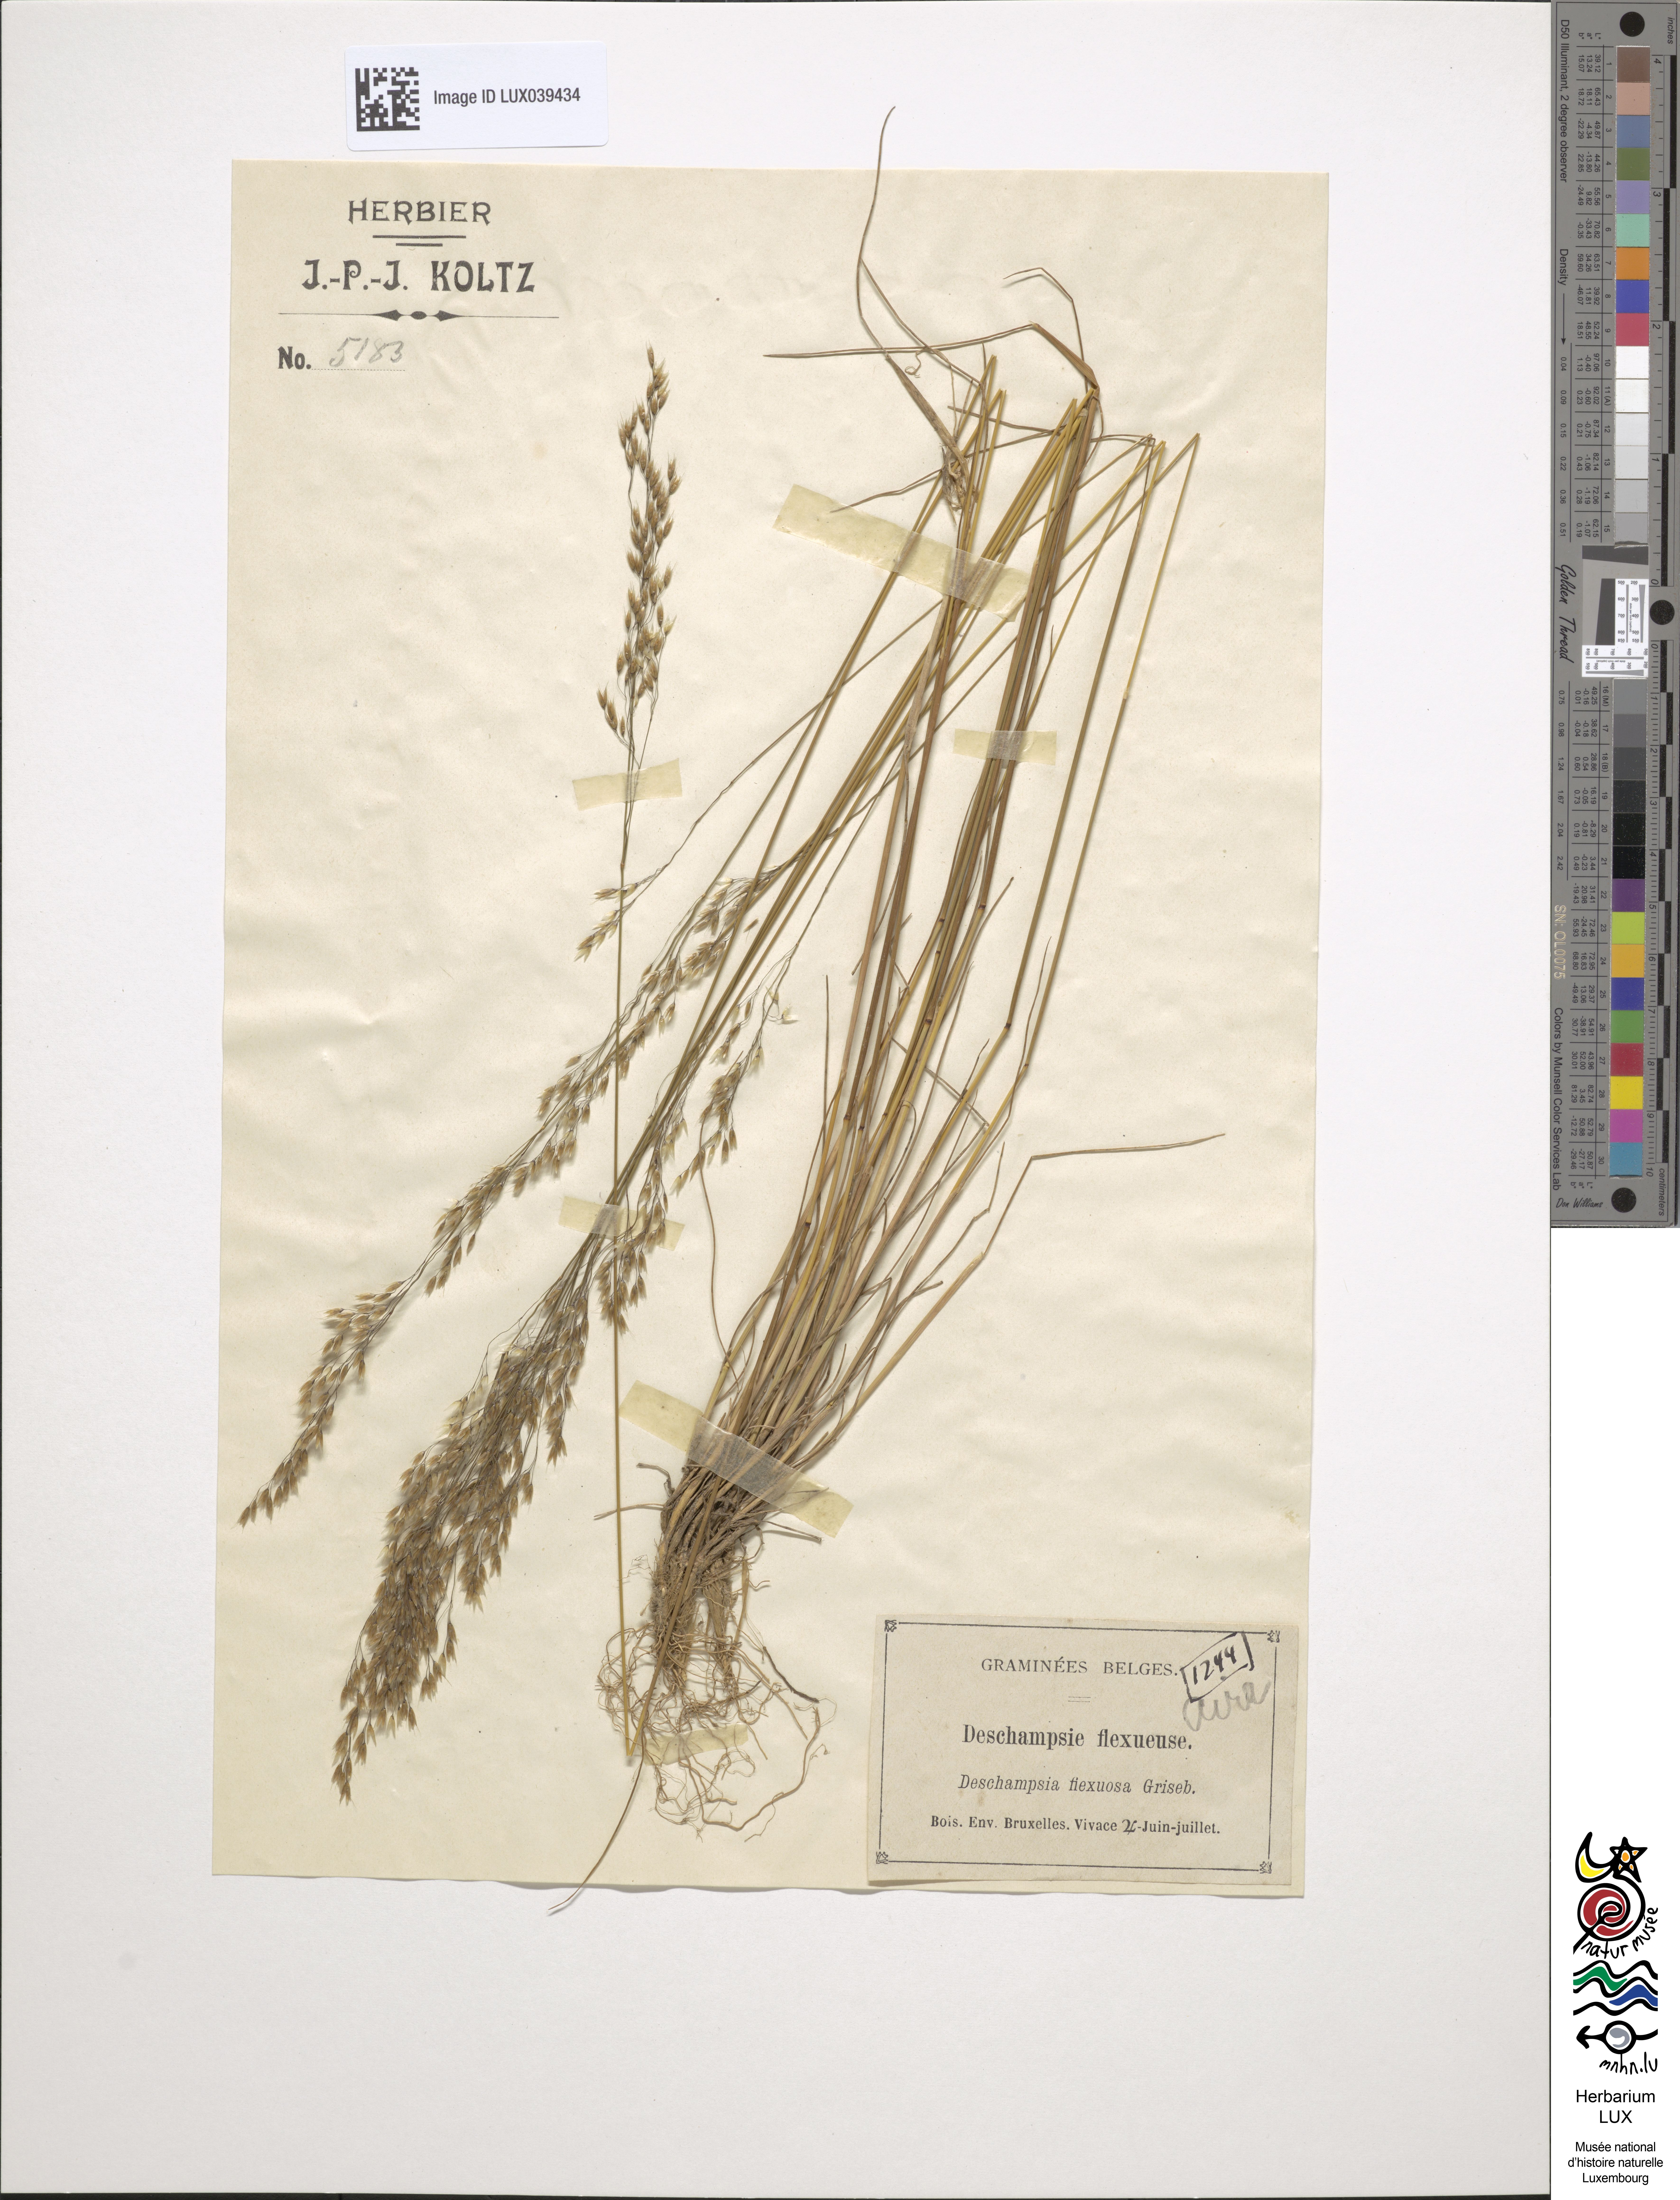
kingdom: Plantae
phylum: Tracheophyta
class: Liliopsida
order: Poales
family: Poaceae
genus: Avenella
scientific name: Avenella flexuosa
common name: Wavy hairgrass
